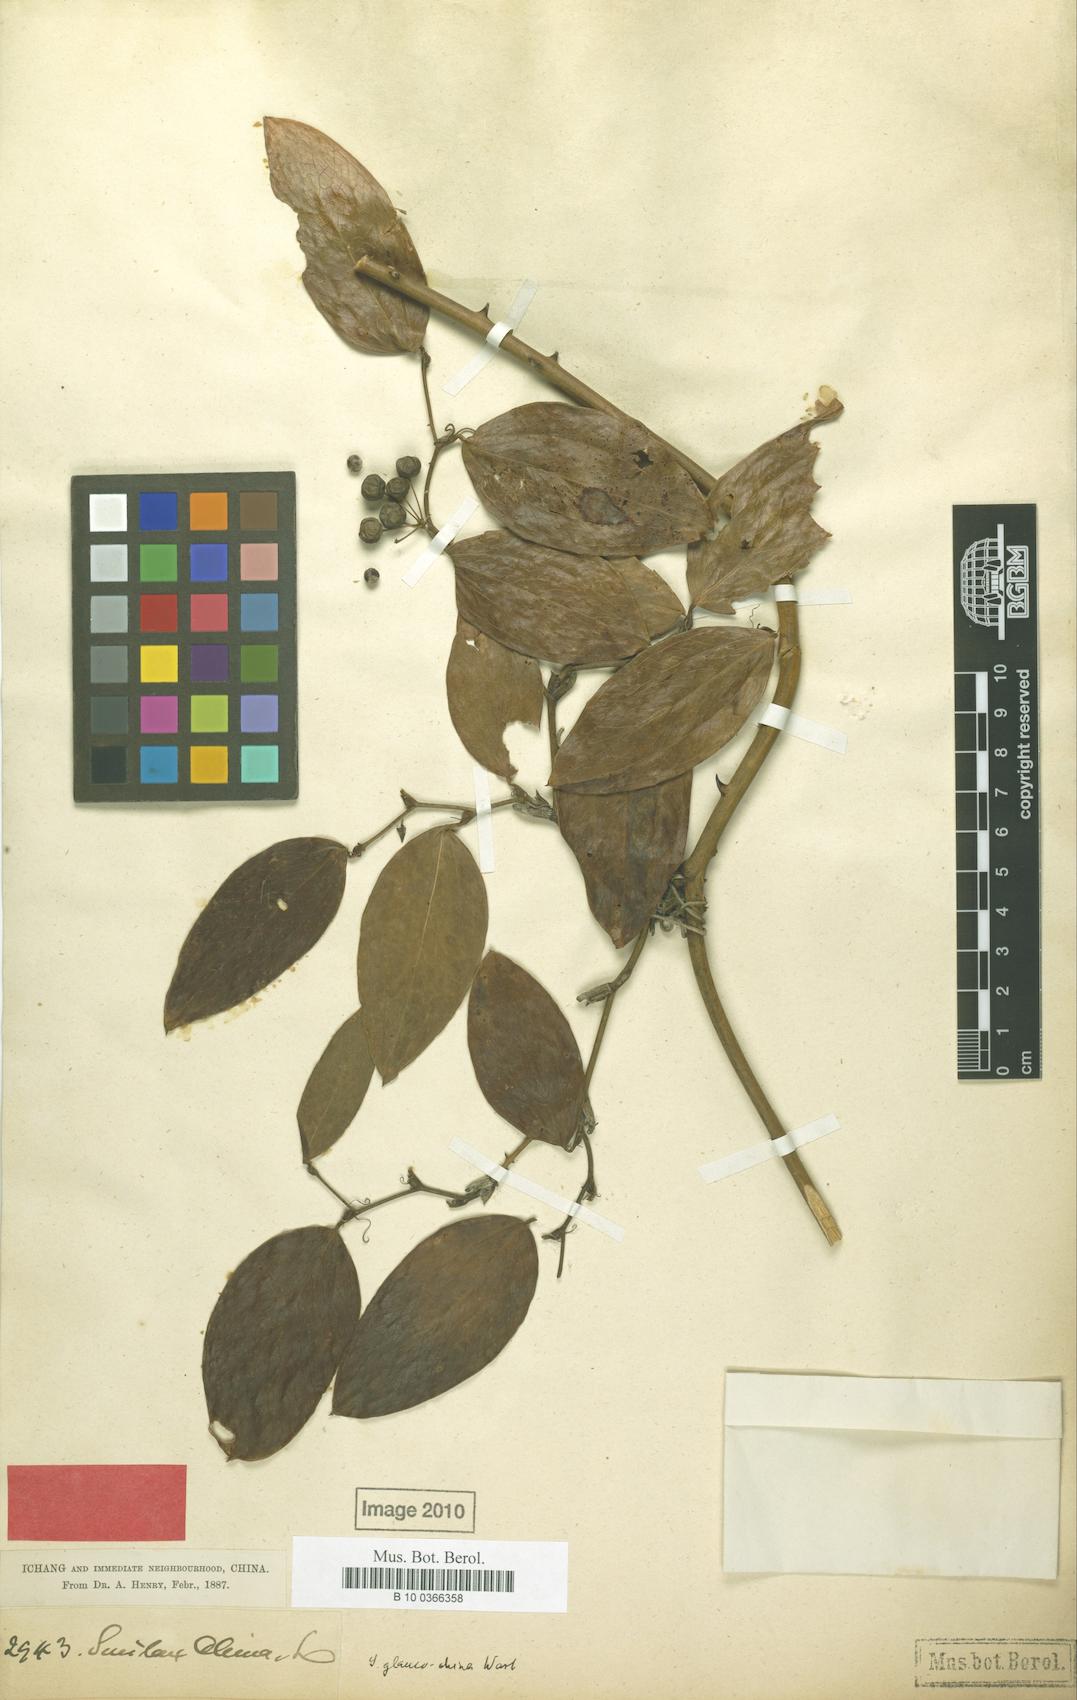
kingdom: Plantae
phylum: Tracheophyta
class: Liliopsida
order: Liliales
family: Smilacaceae
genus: Smilax
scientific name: Smilax glaucochina
